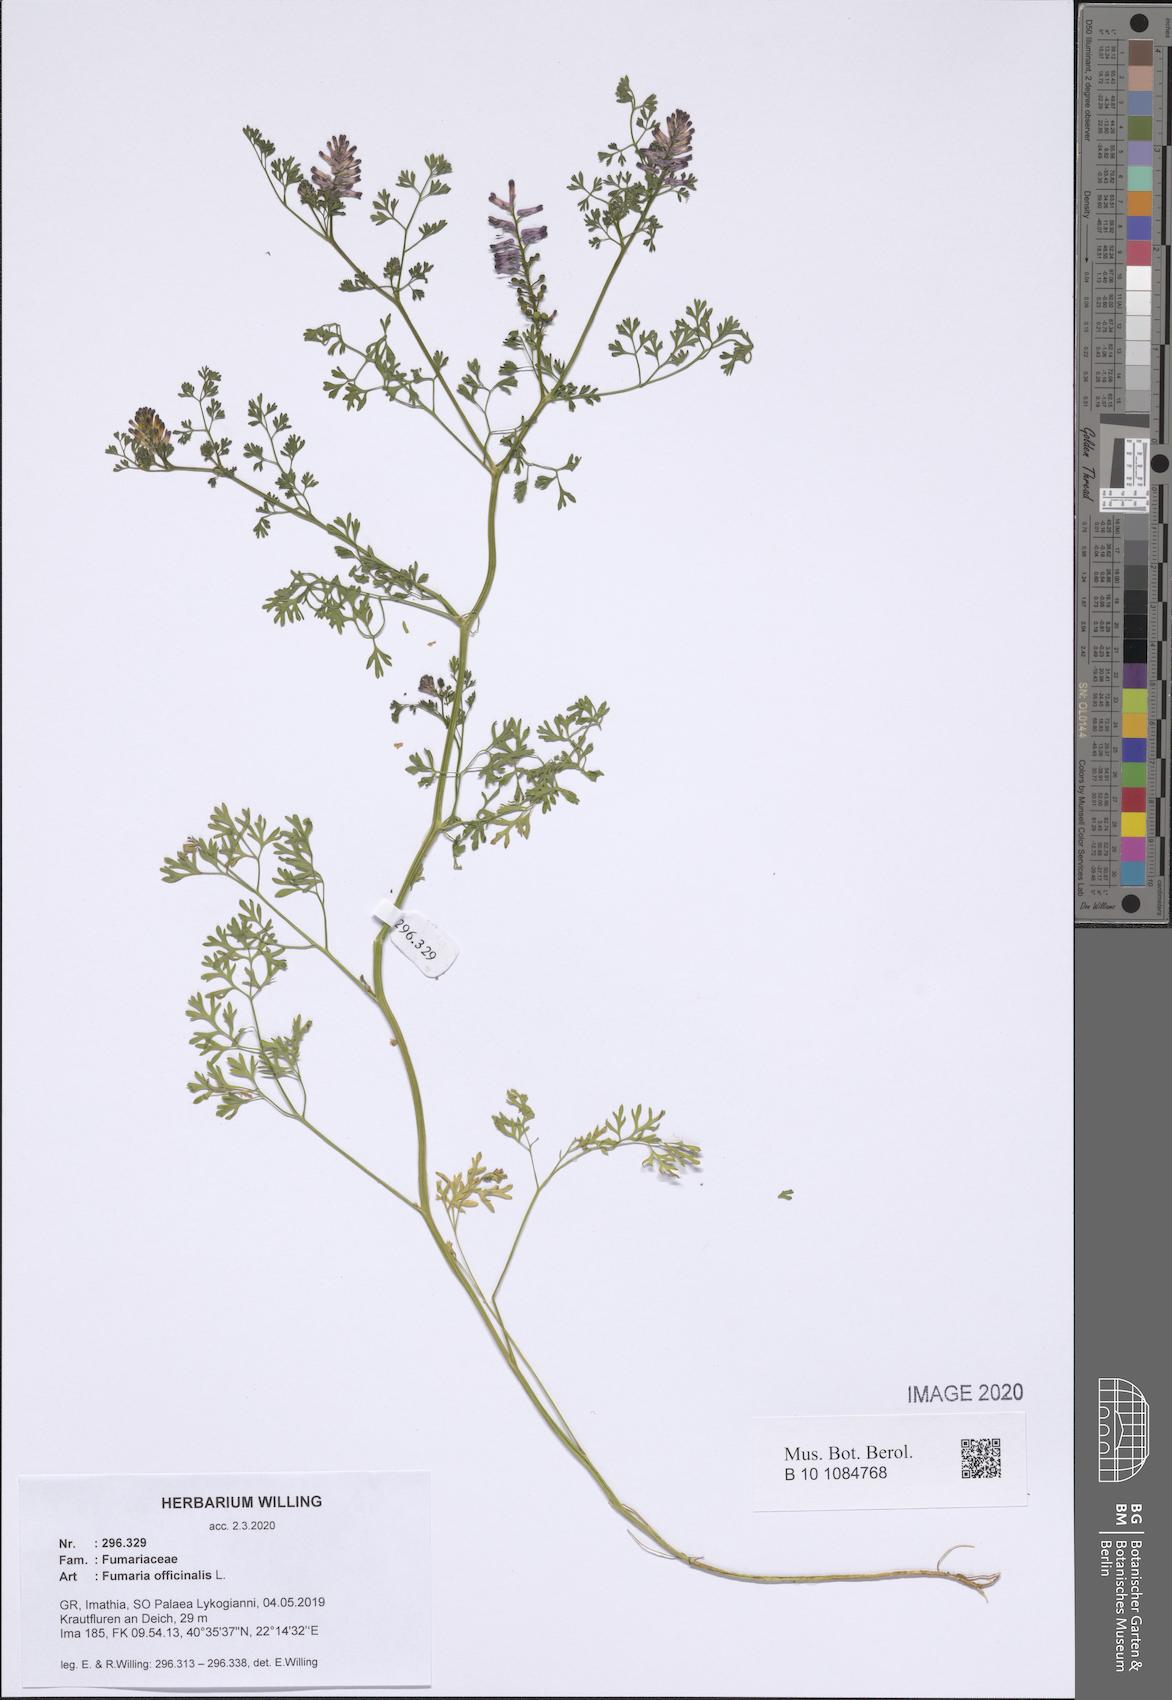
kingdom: Plantae
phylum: Tracheophyta
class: Magnoliopsida
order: Ranunculales
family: Papaveraceae
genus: Fumaria
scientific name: Fumaria officinalis
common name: Common fumitory
